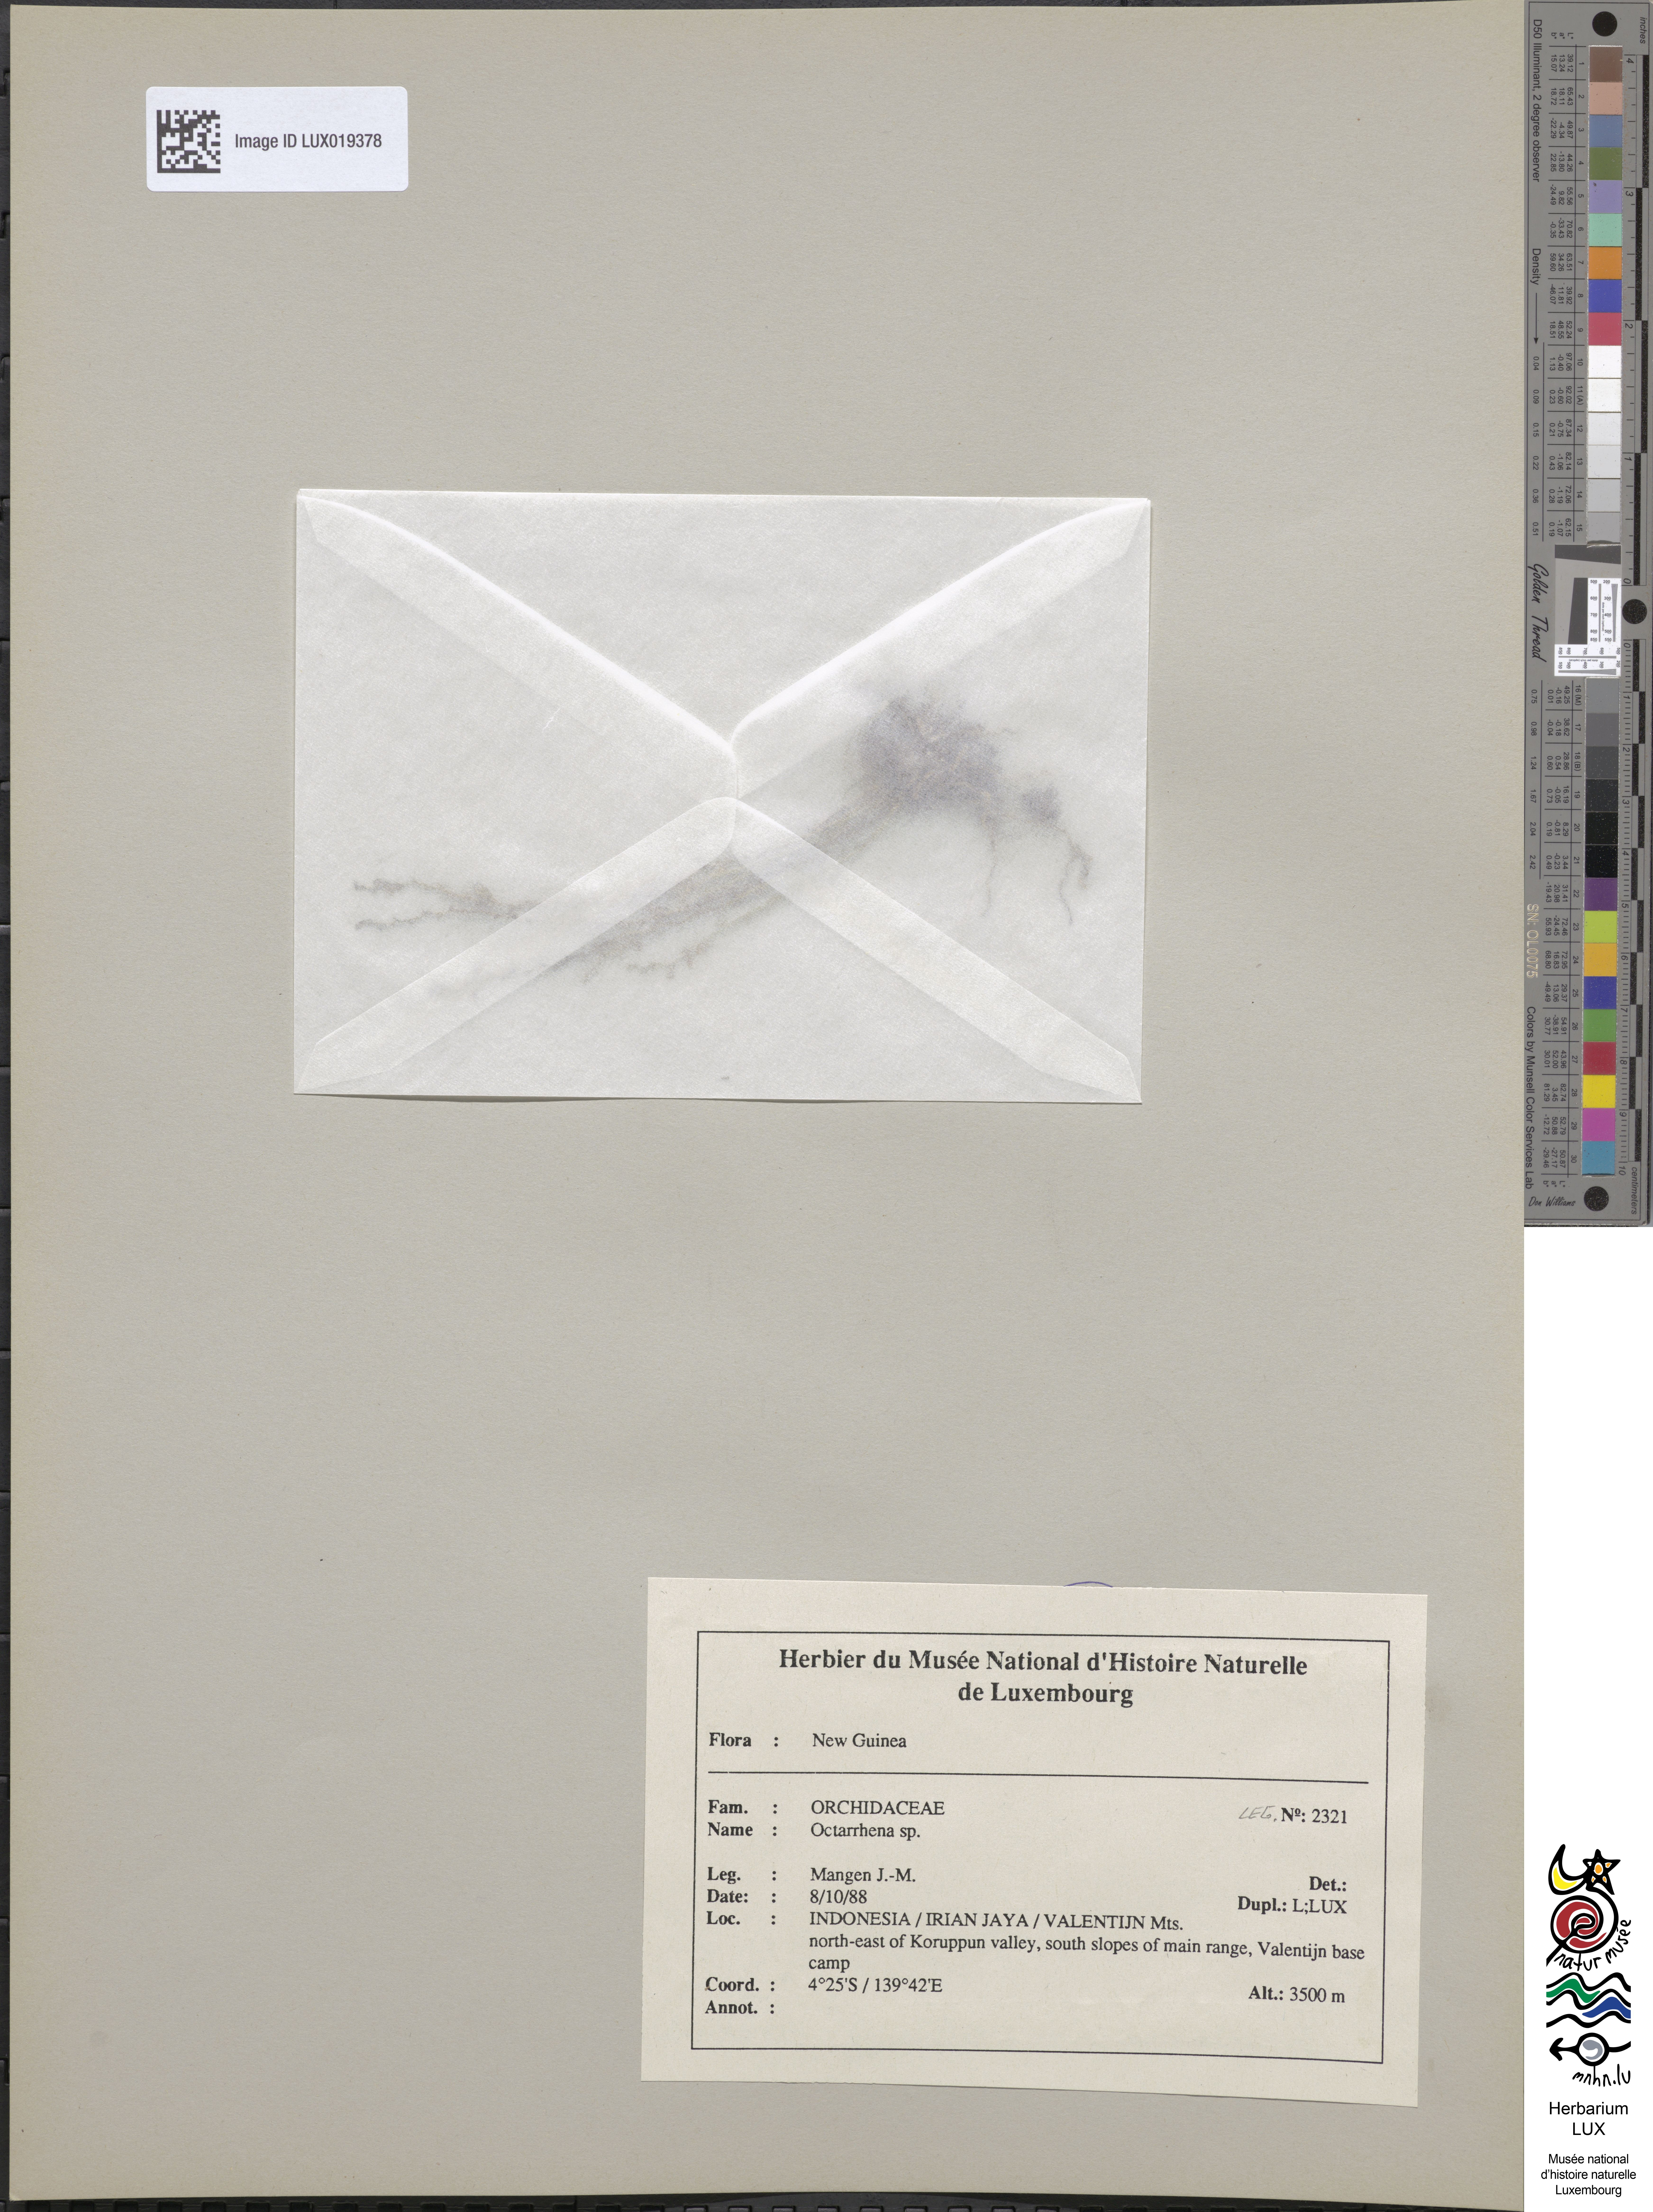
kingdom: Plantae
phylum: Tracheophyta
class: Liliopsida
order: Asparagales
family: Orchidaceae
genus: Octarrhena
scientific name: Octarrhena
